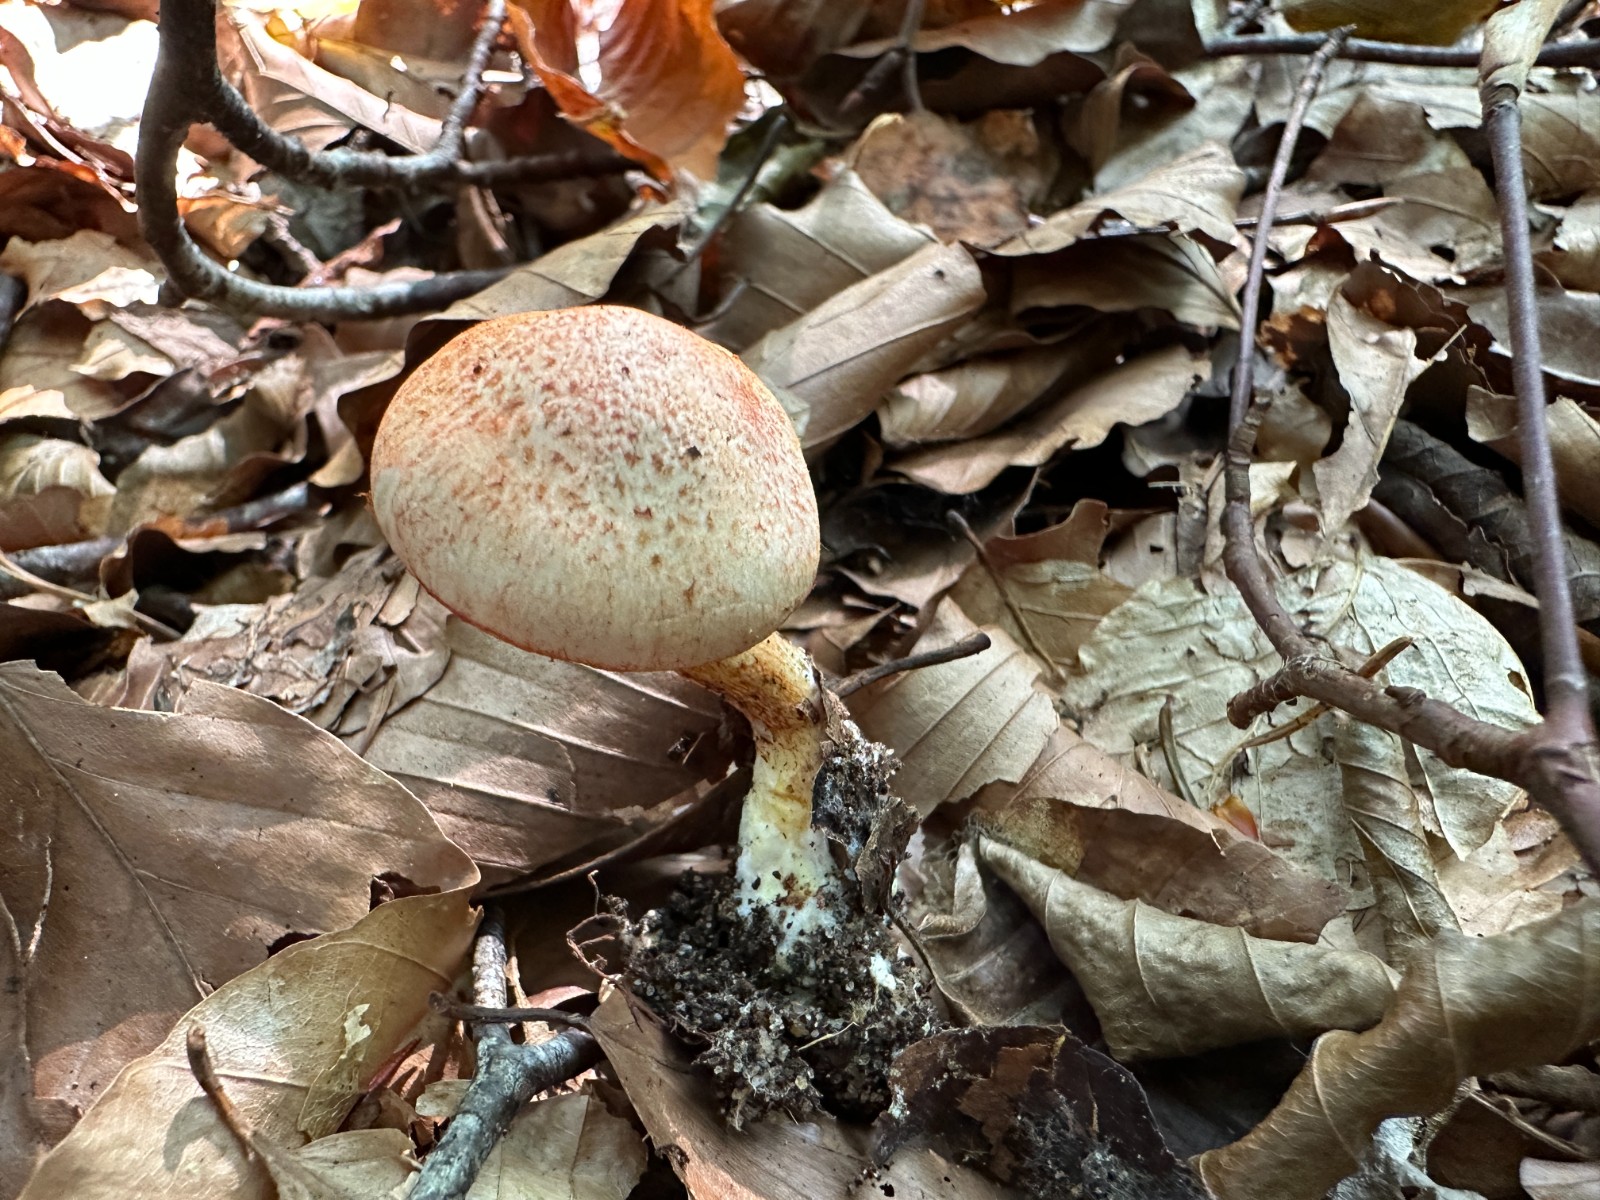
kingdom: Fungi
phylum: Basidiomycota
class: Agaricomycetes
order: Agaricales
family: Cortinariaceae
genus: Cortinarius
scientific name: Cortinarius bolaris
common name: cinnoberskællet slørhat
